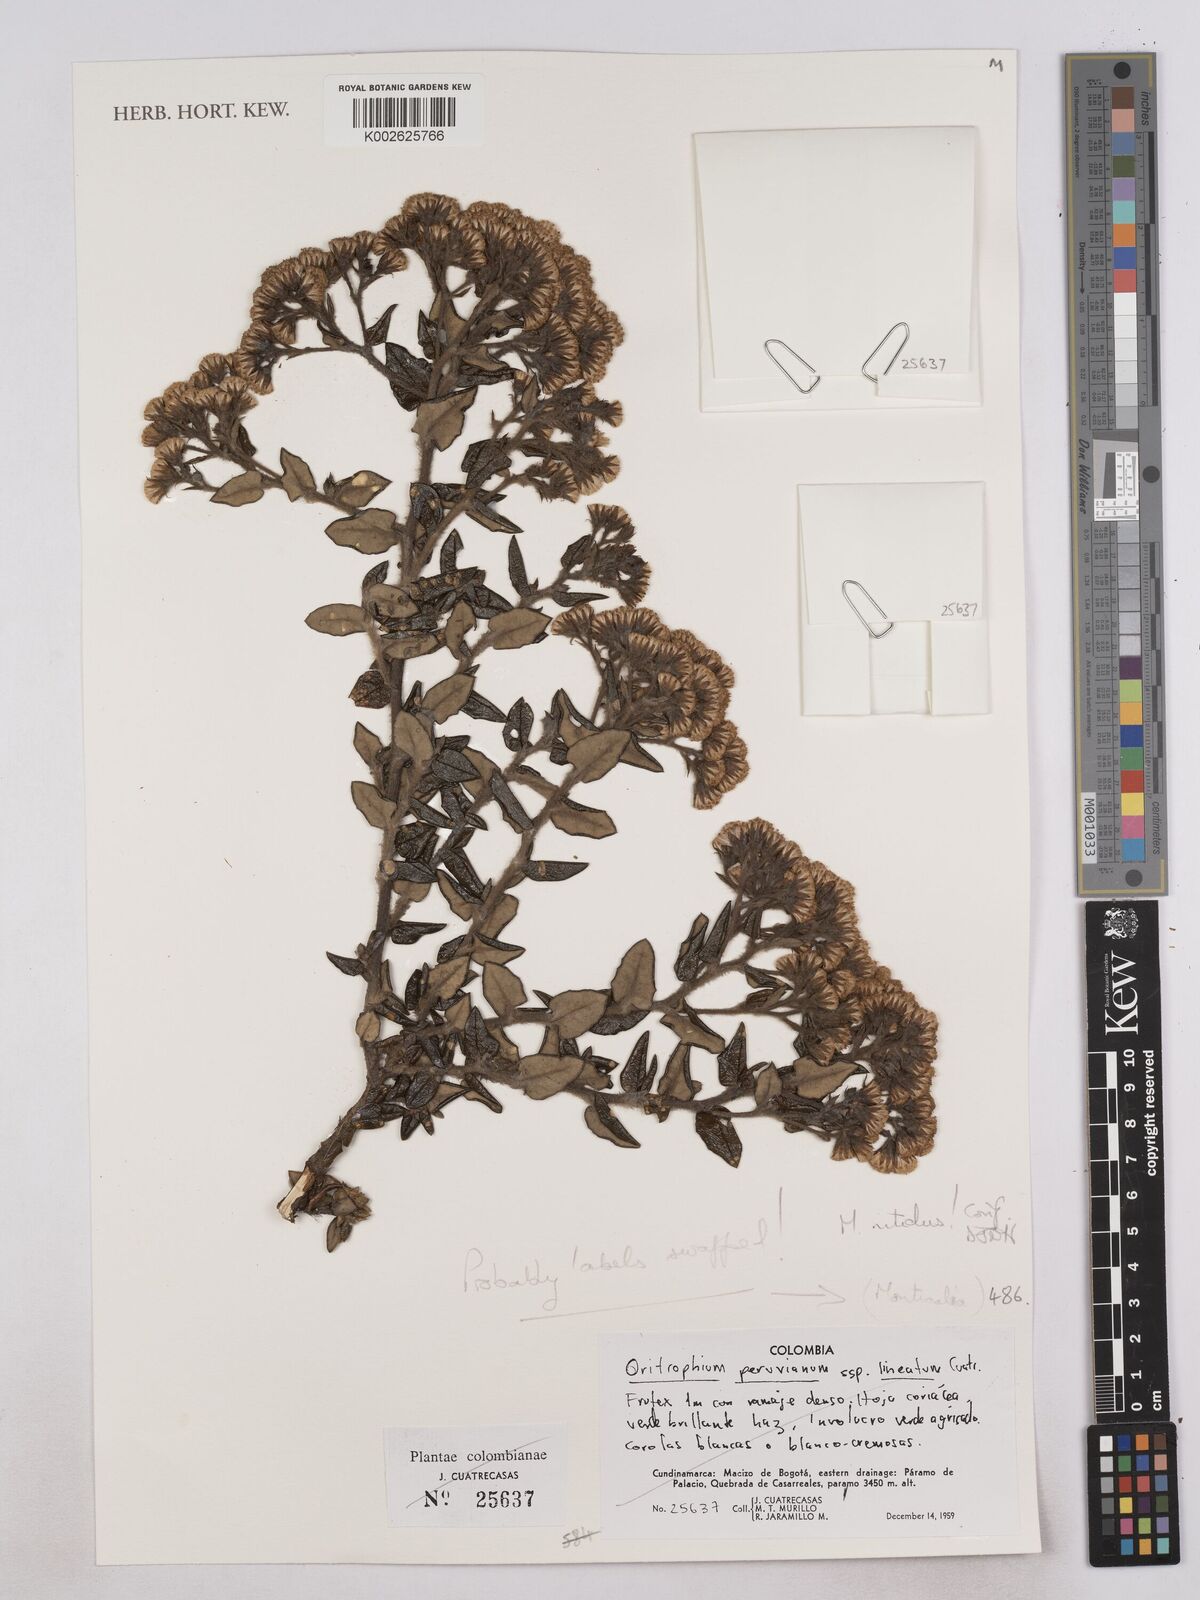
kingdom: Plantae
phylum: Tracheophyta
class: Magnoliopsida
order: Asterales
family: Asteraceae
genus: Monticalia
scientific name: Monticalia
